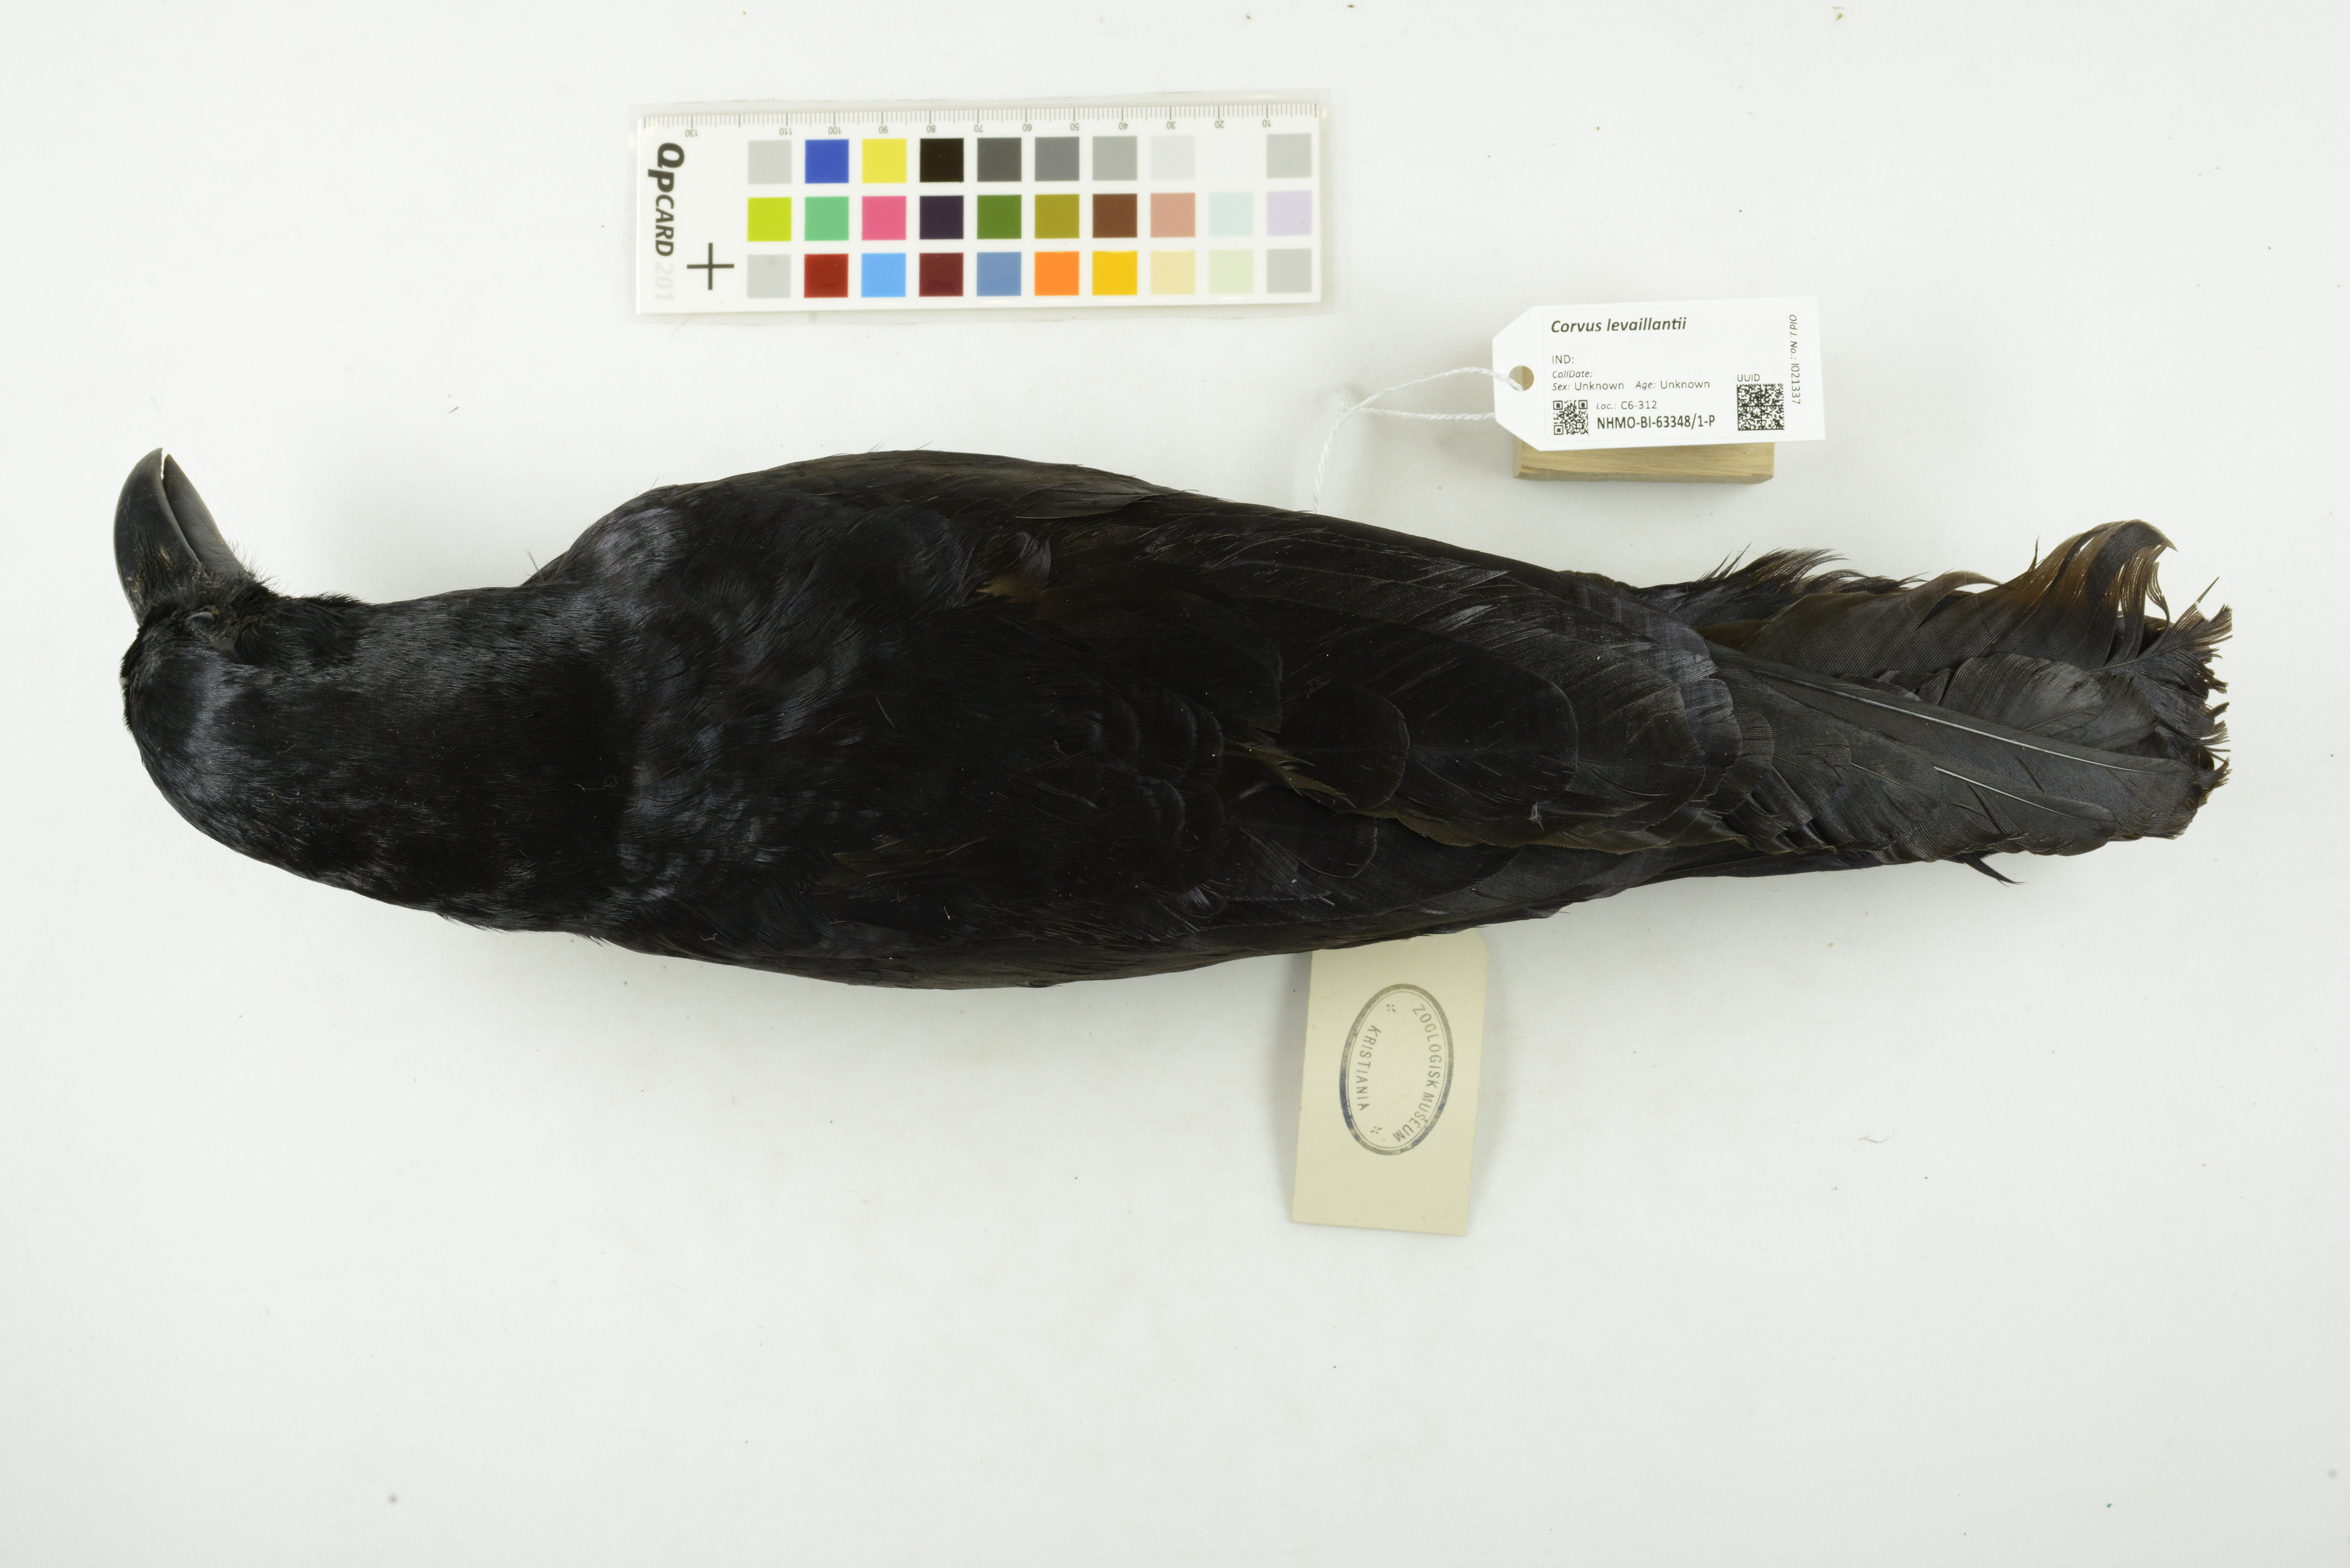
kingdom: Animalia
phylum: Chordata
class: Aves
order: Passeriformes
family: Corvidae
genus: Corvus
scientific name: Corvus levaillantii
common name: Jungle crow
